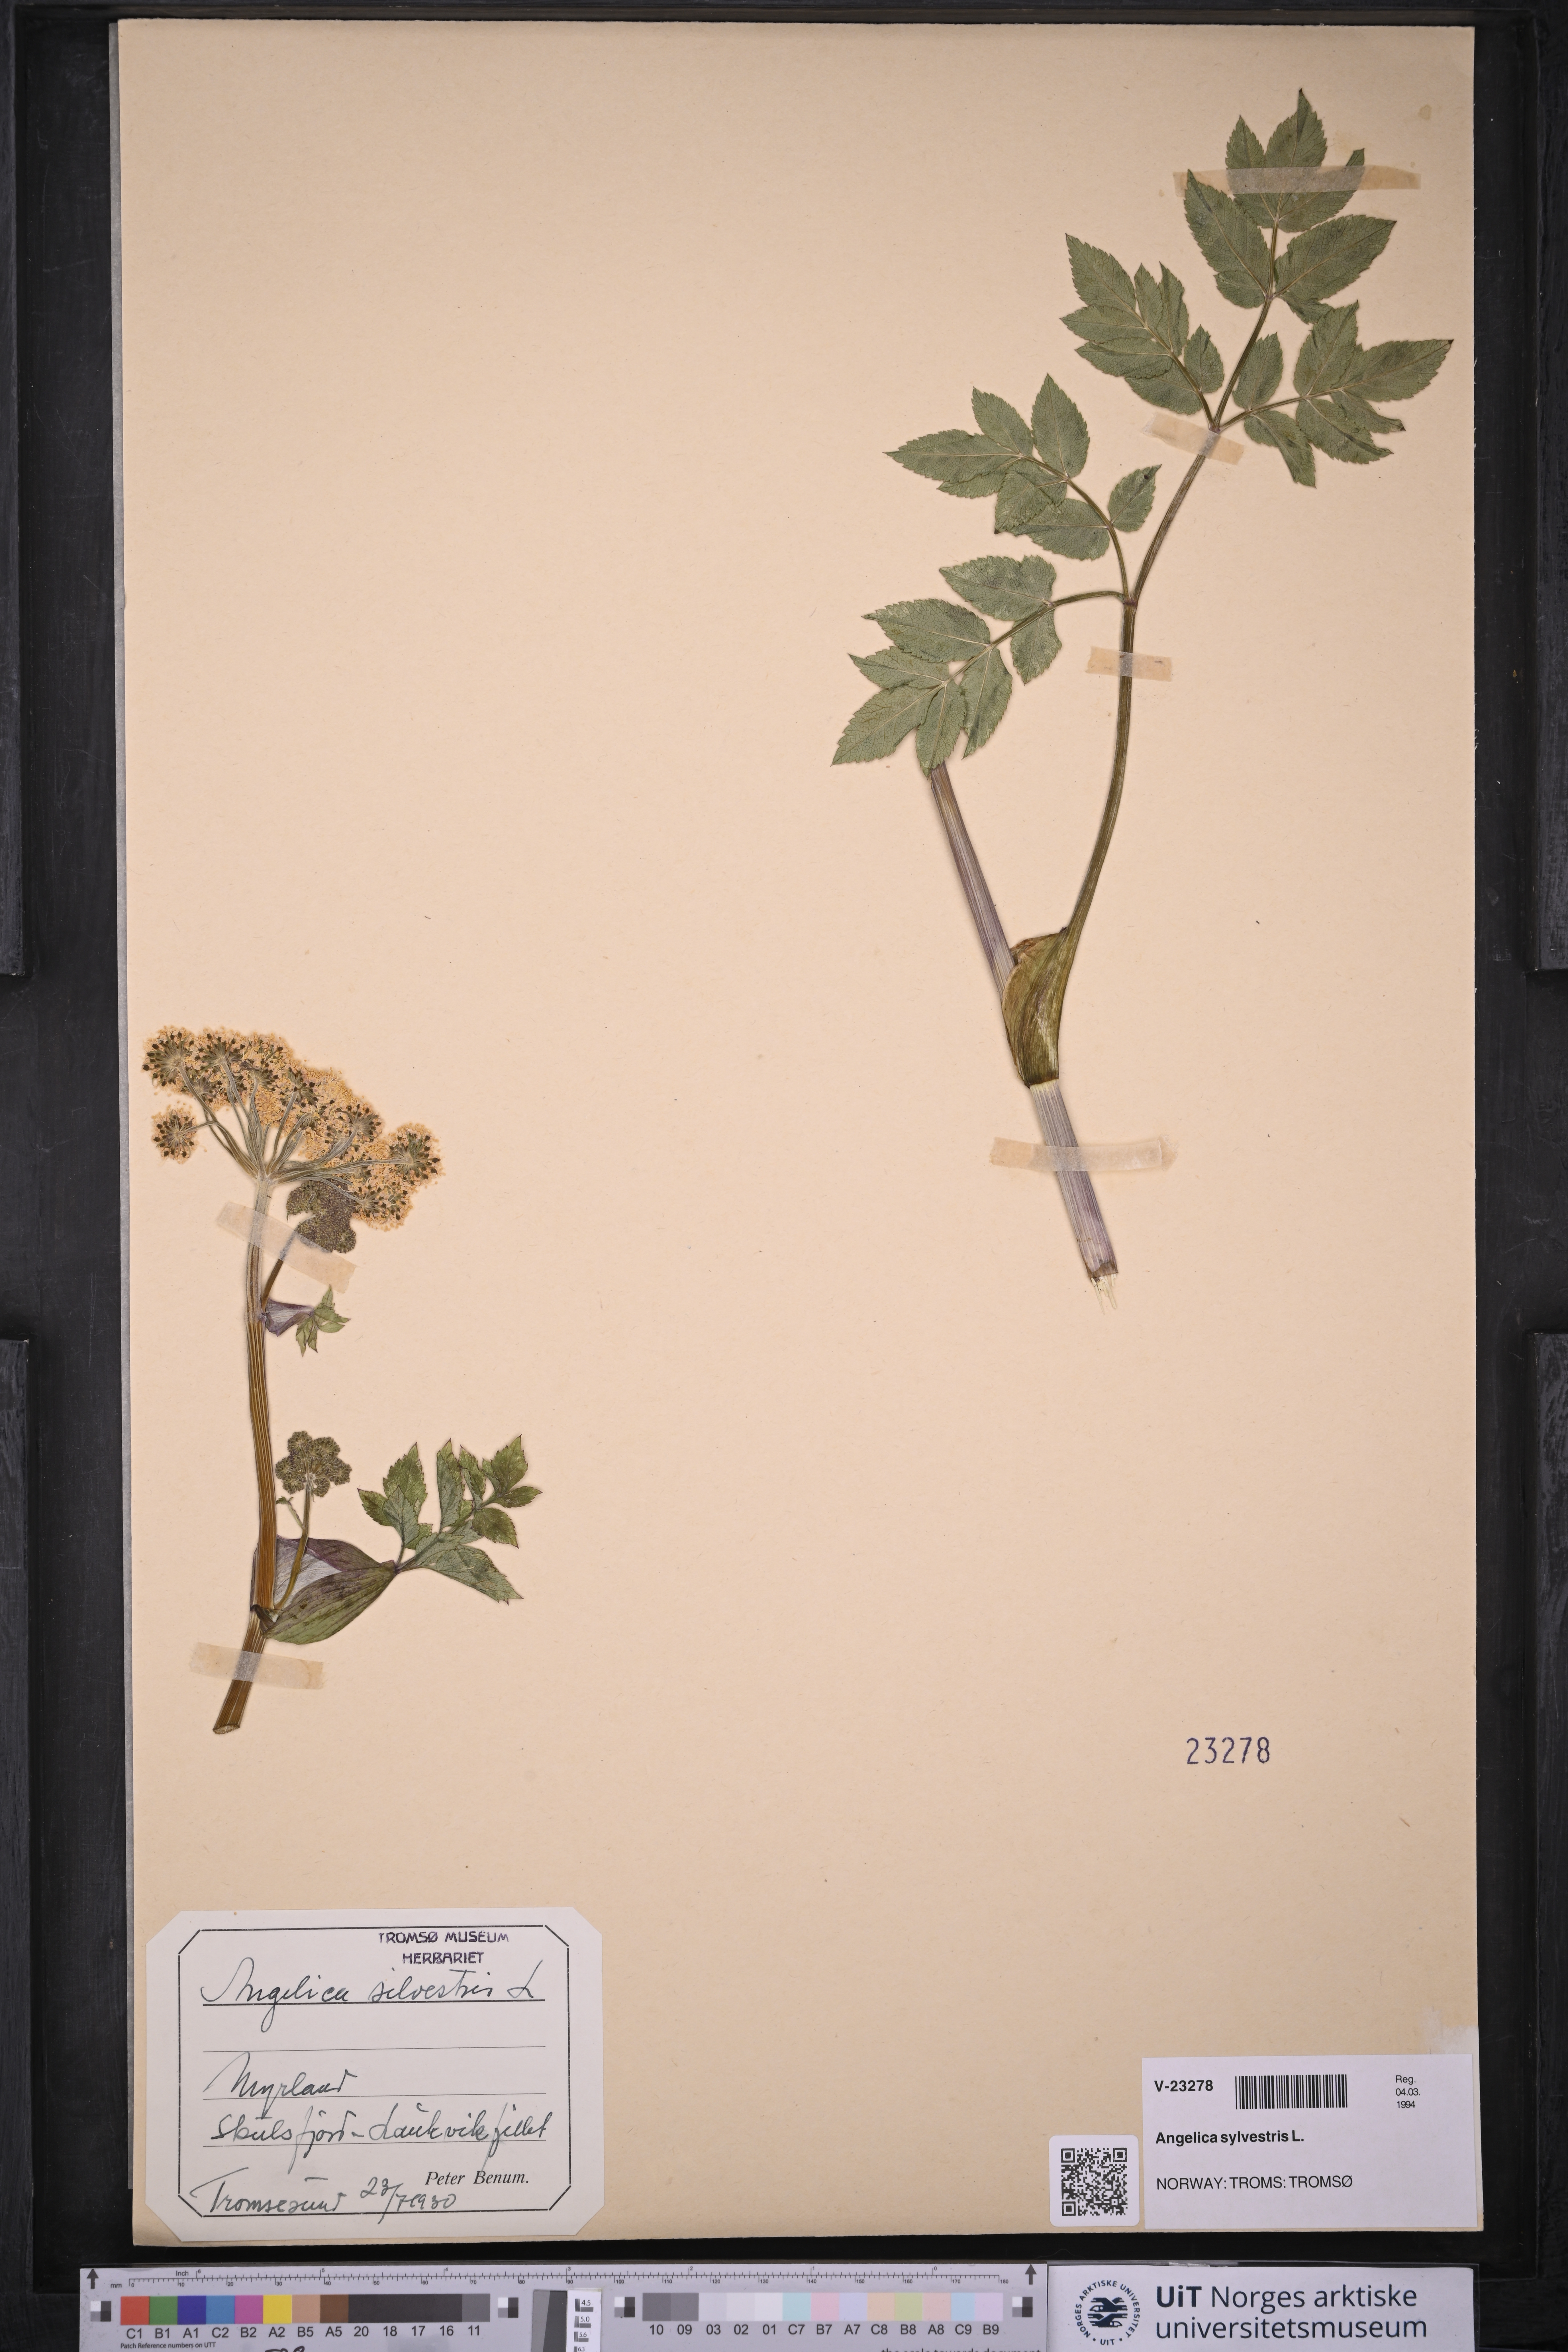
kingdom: Plantae
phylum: Tracheophyta
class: Magnoliopsida
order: Apiales
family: Apiaceae
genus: Angelica
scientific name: Angelica sylvestris
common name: Wild angelica
